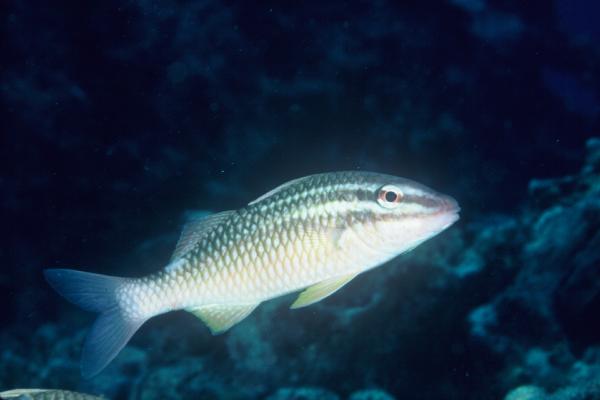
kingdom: Animalia
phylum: Chordata
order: Perciformes
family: Mullidae
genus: Parupeneus
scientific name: Parupeneus ciliatus
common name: White-lined goatfish
